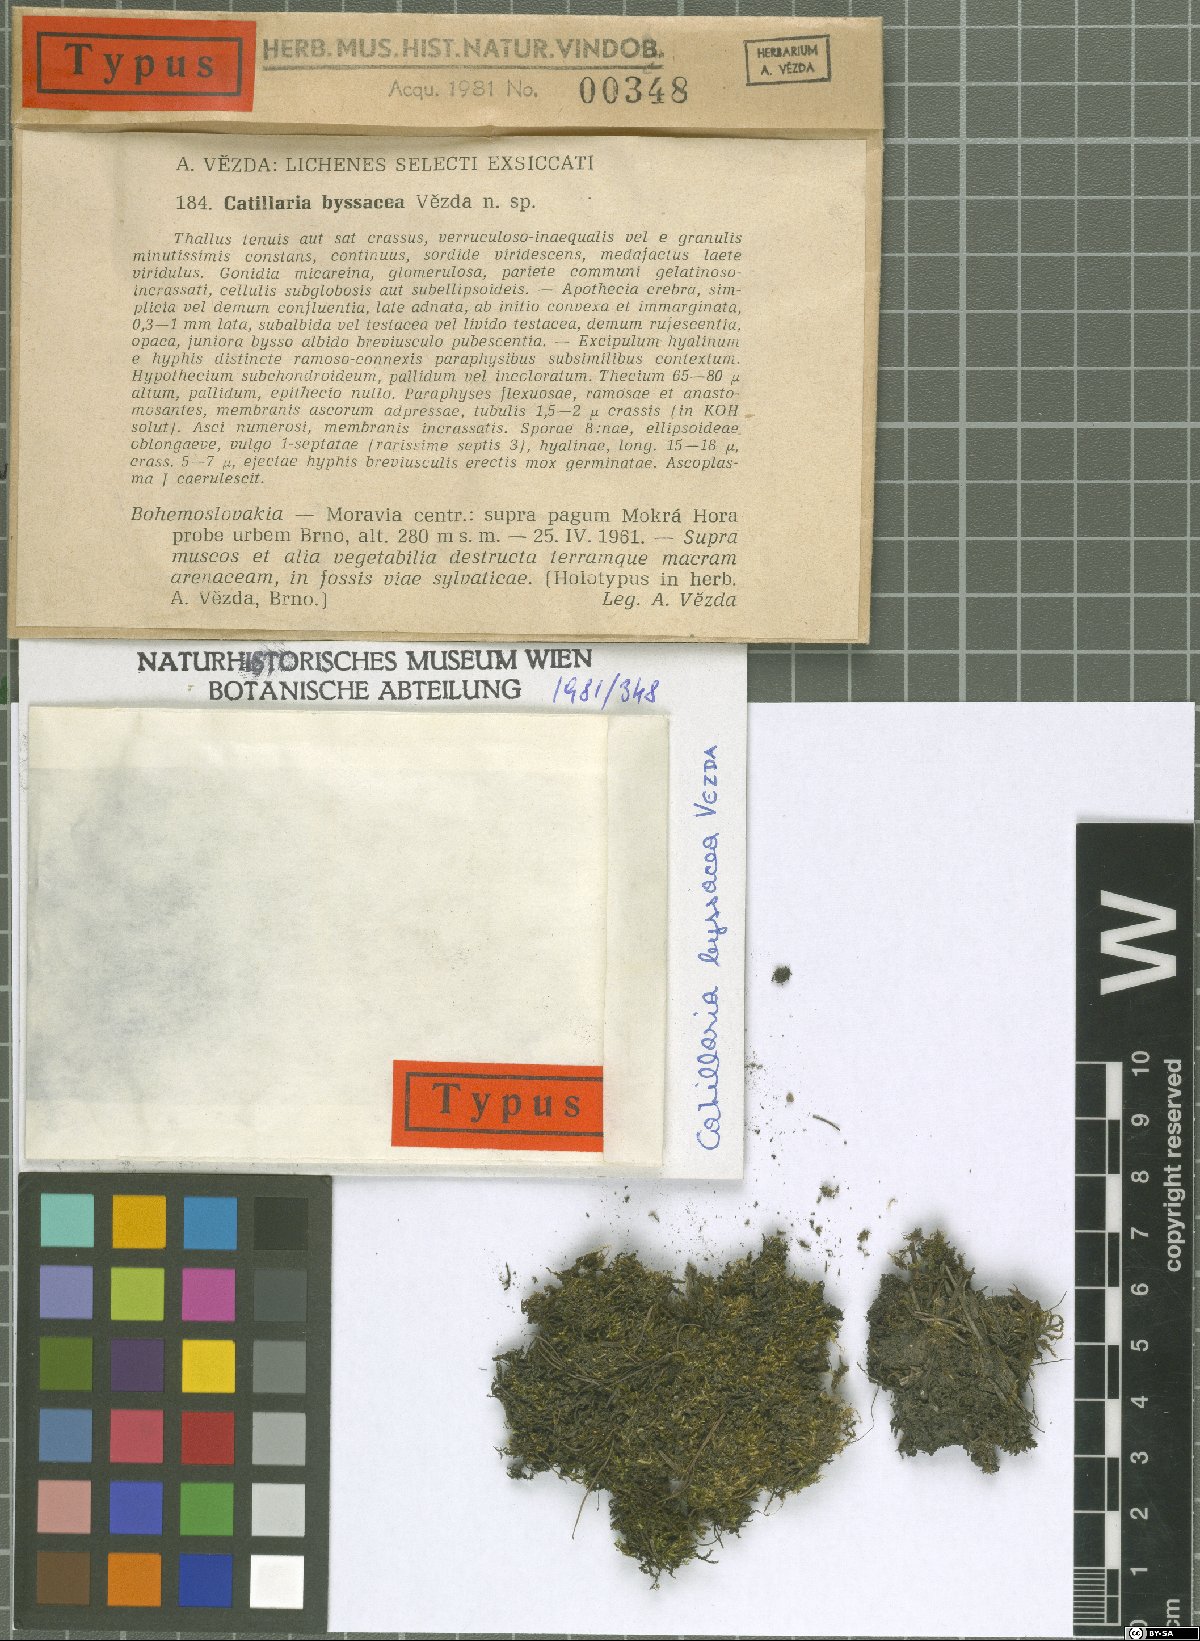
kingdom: Fungi
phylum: Ascomycota
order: Vezdaeales
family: Vezdaeaceae
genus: Vezdaea
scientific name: Vezdaea aestivalis
